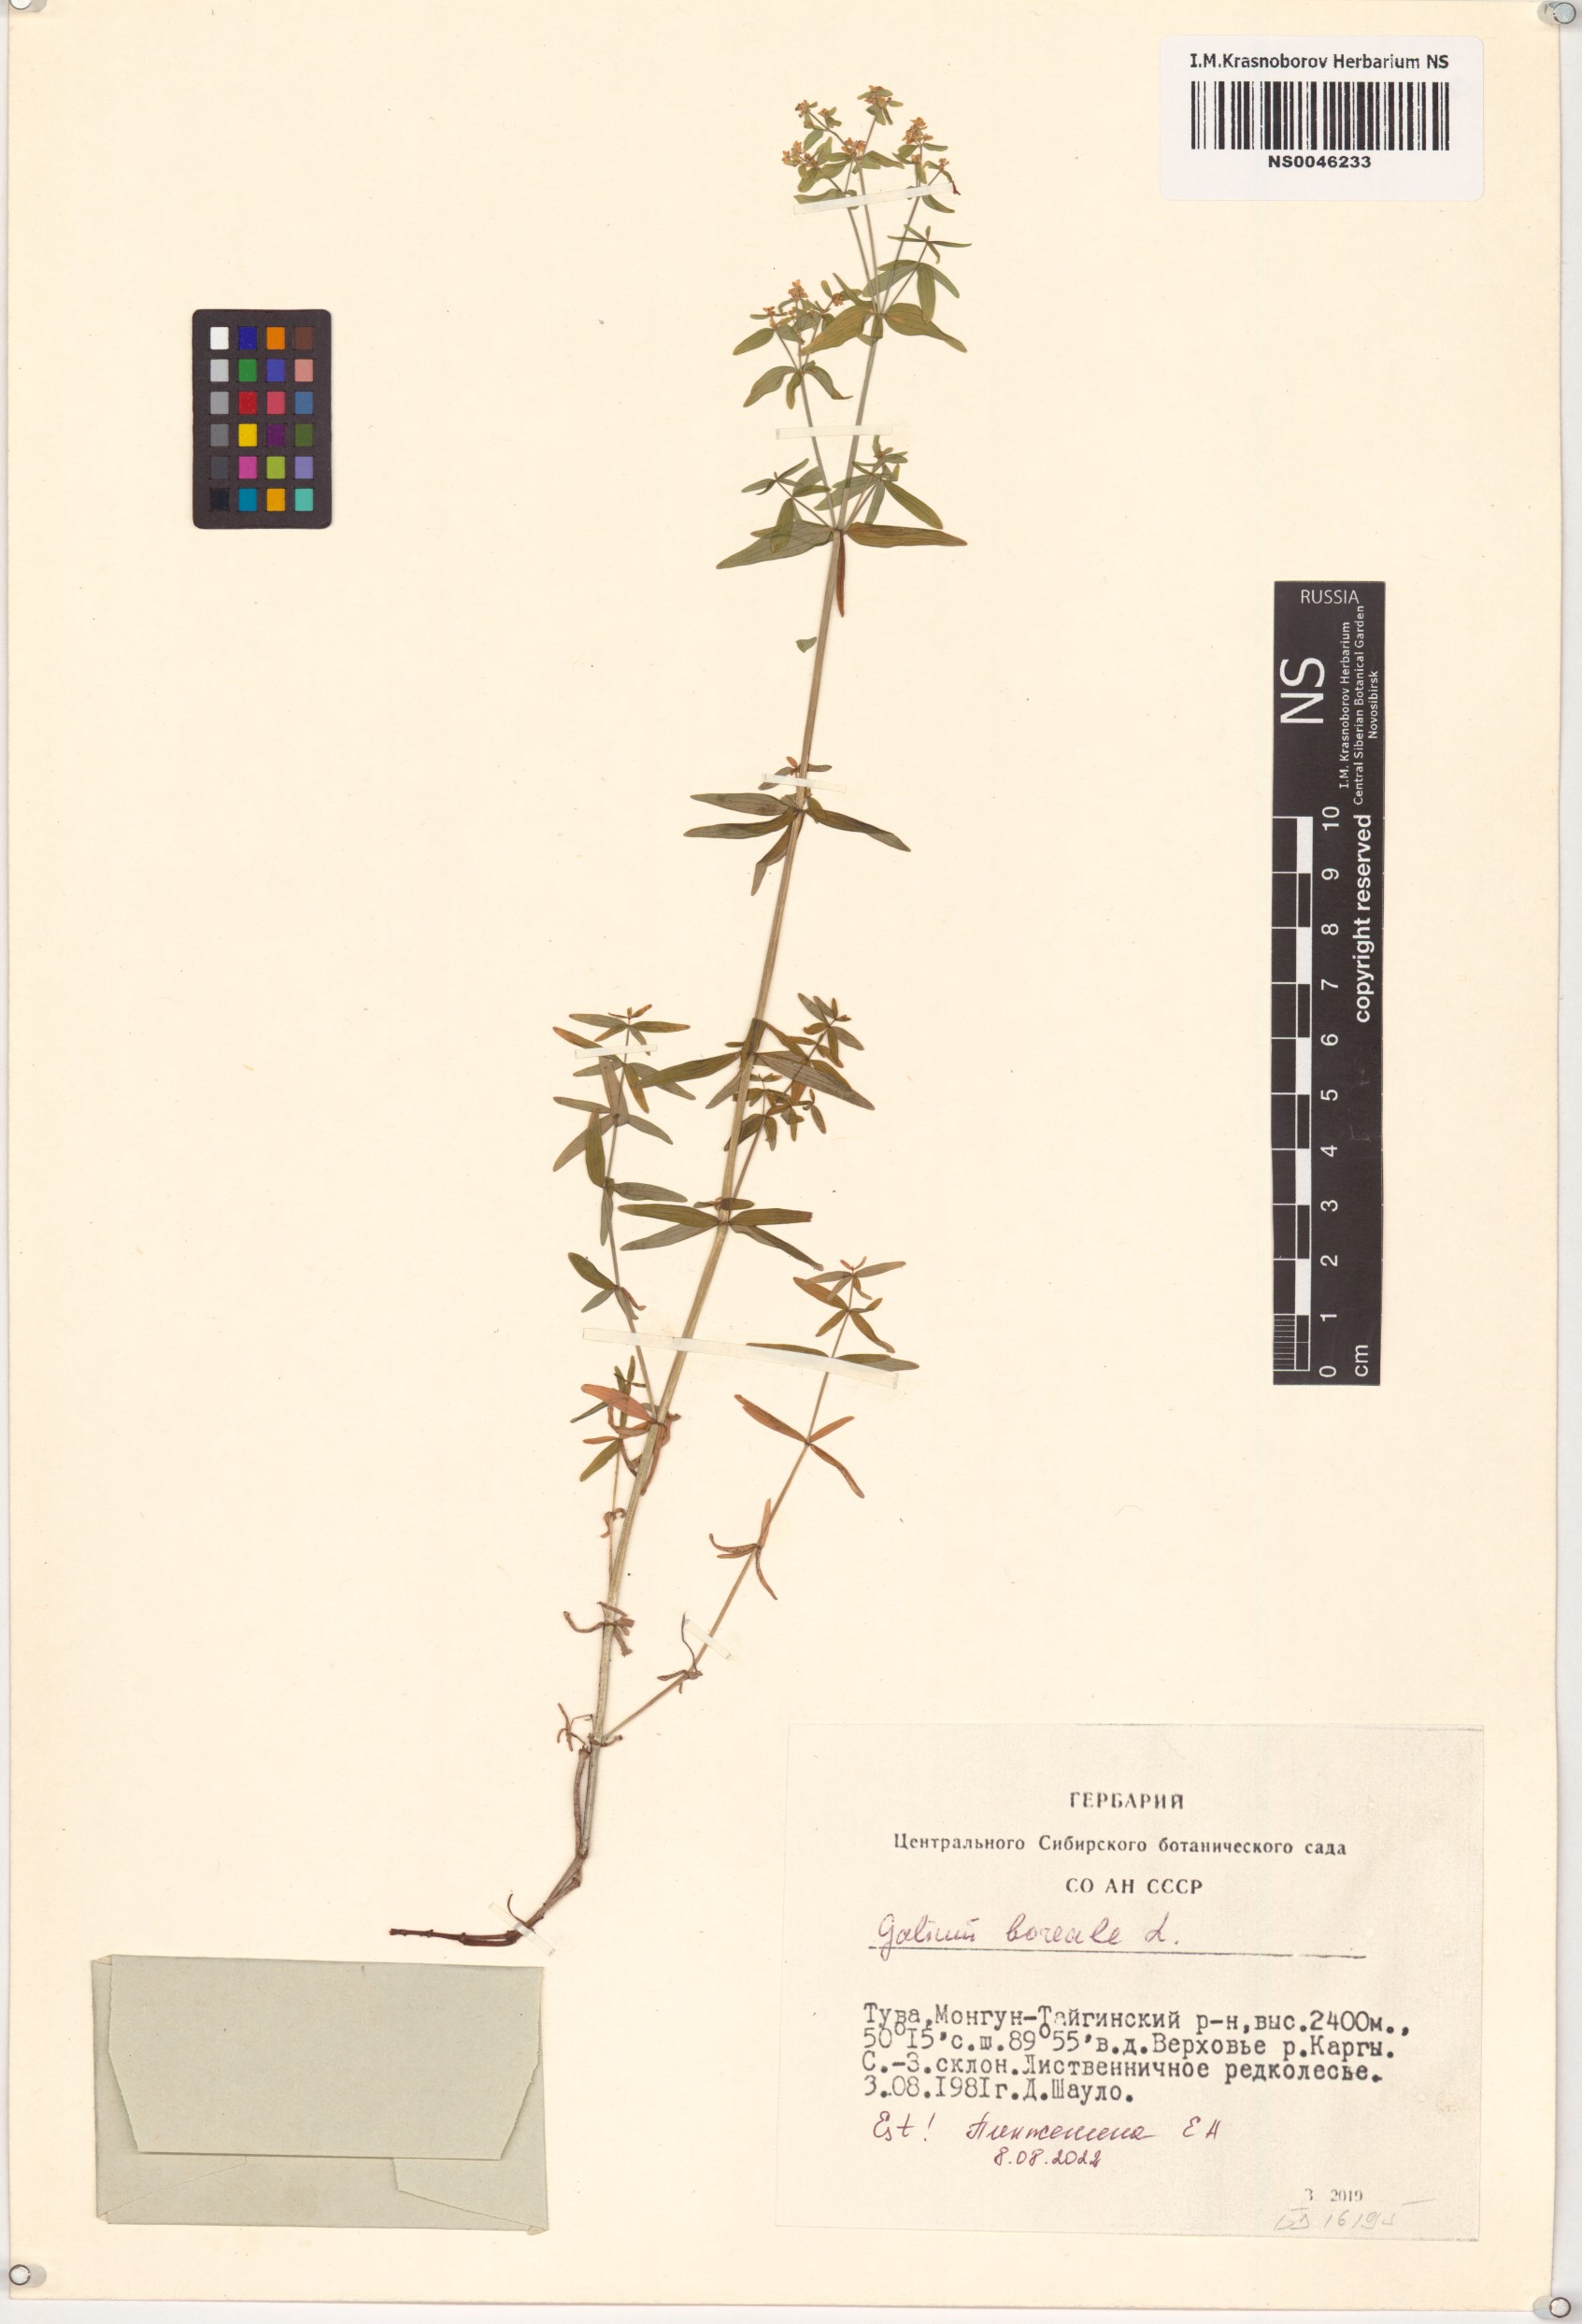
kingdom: Plantae
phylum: Tracheophyta
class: Magnoliopsida
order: Gentianales
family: Rubiaceae
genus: Galium
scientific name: Galium boreale
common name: Northern bedstraw
